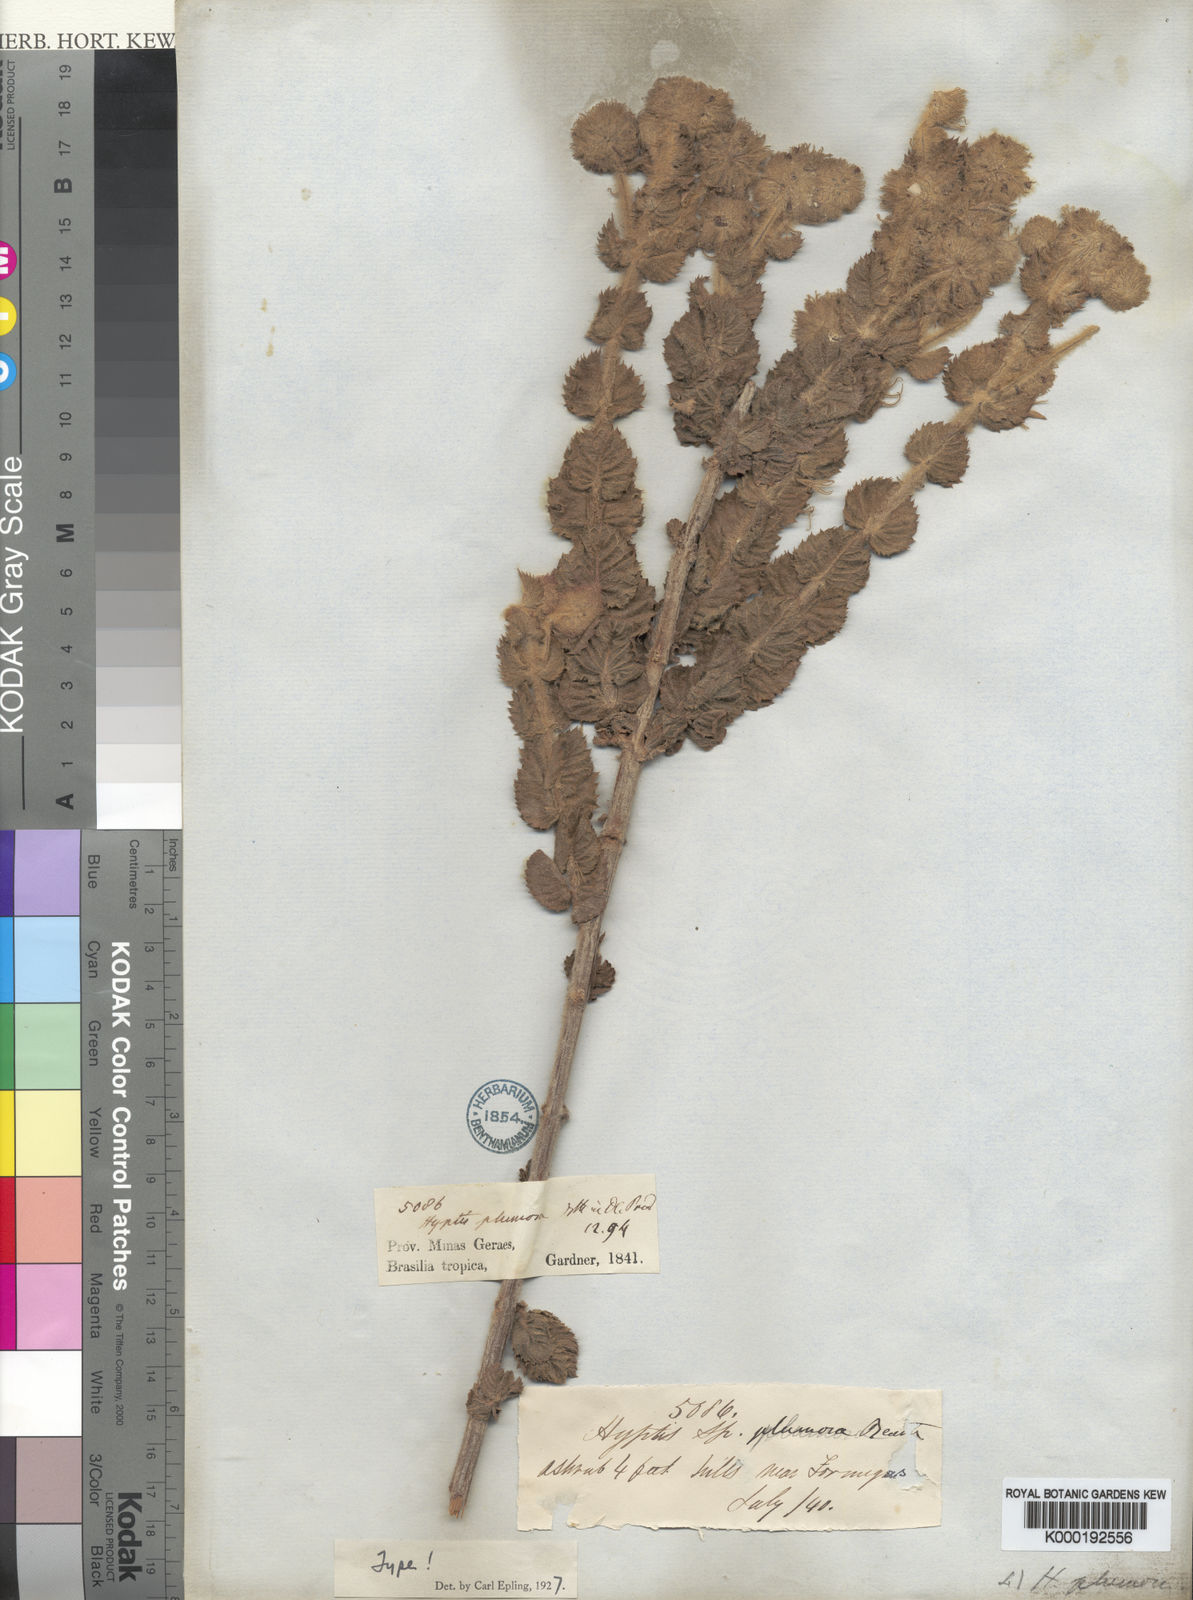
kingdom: Plantae
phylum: Tracheophyta
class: Magnoliopsida
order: Lamiales
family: Lamiaceae
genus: Medusantha
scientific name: Medusantha plumosa
